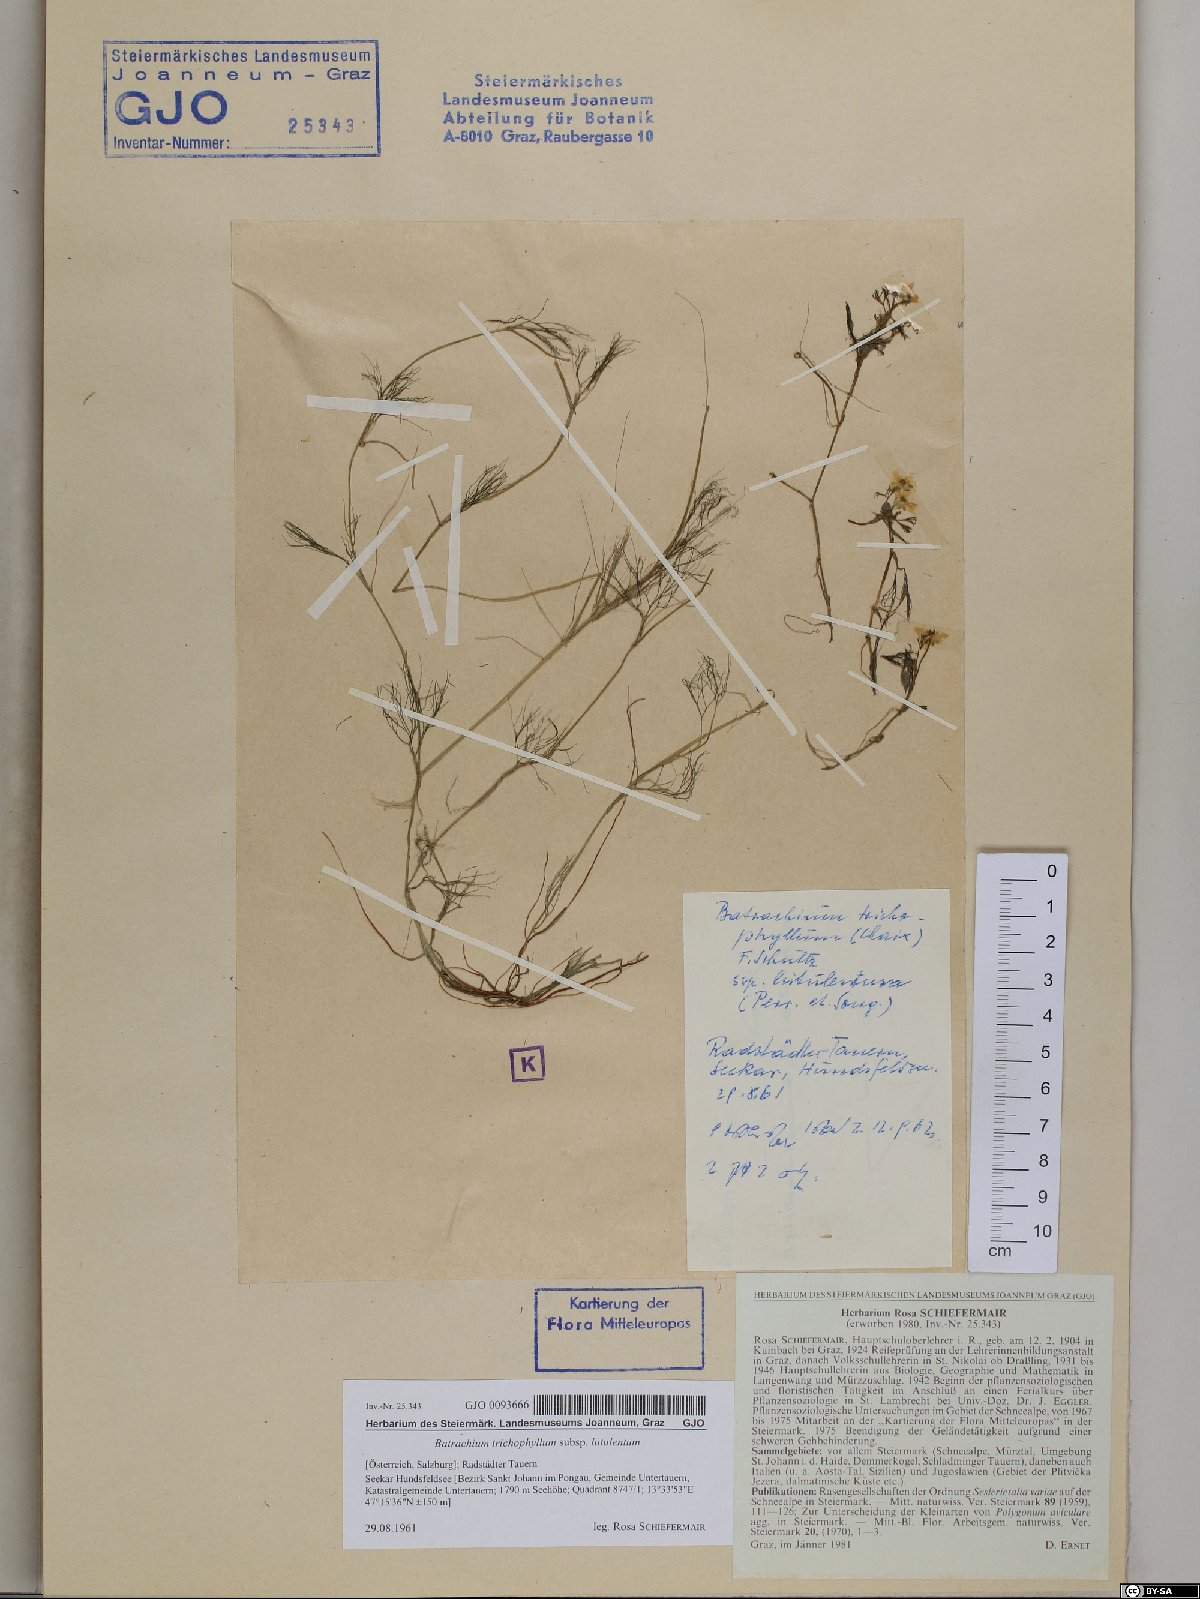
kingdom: Plantae
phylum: Tracheophyta
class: Magnoliopsida
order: Ranunculales
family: Ranunculaceae
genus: Ranunculus
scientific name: Ranunculus confervoides
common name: Delicate buttercup
